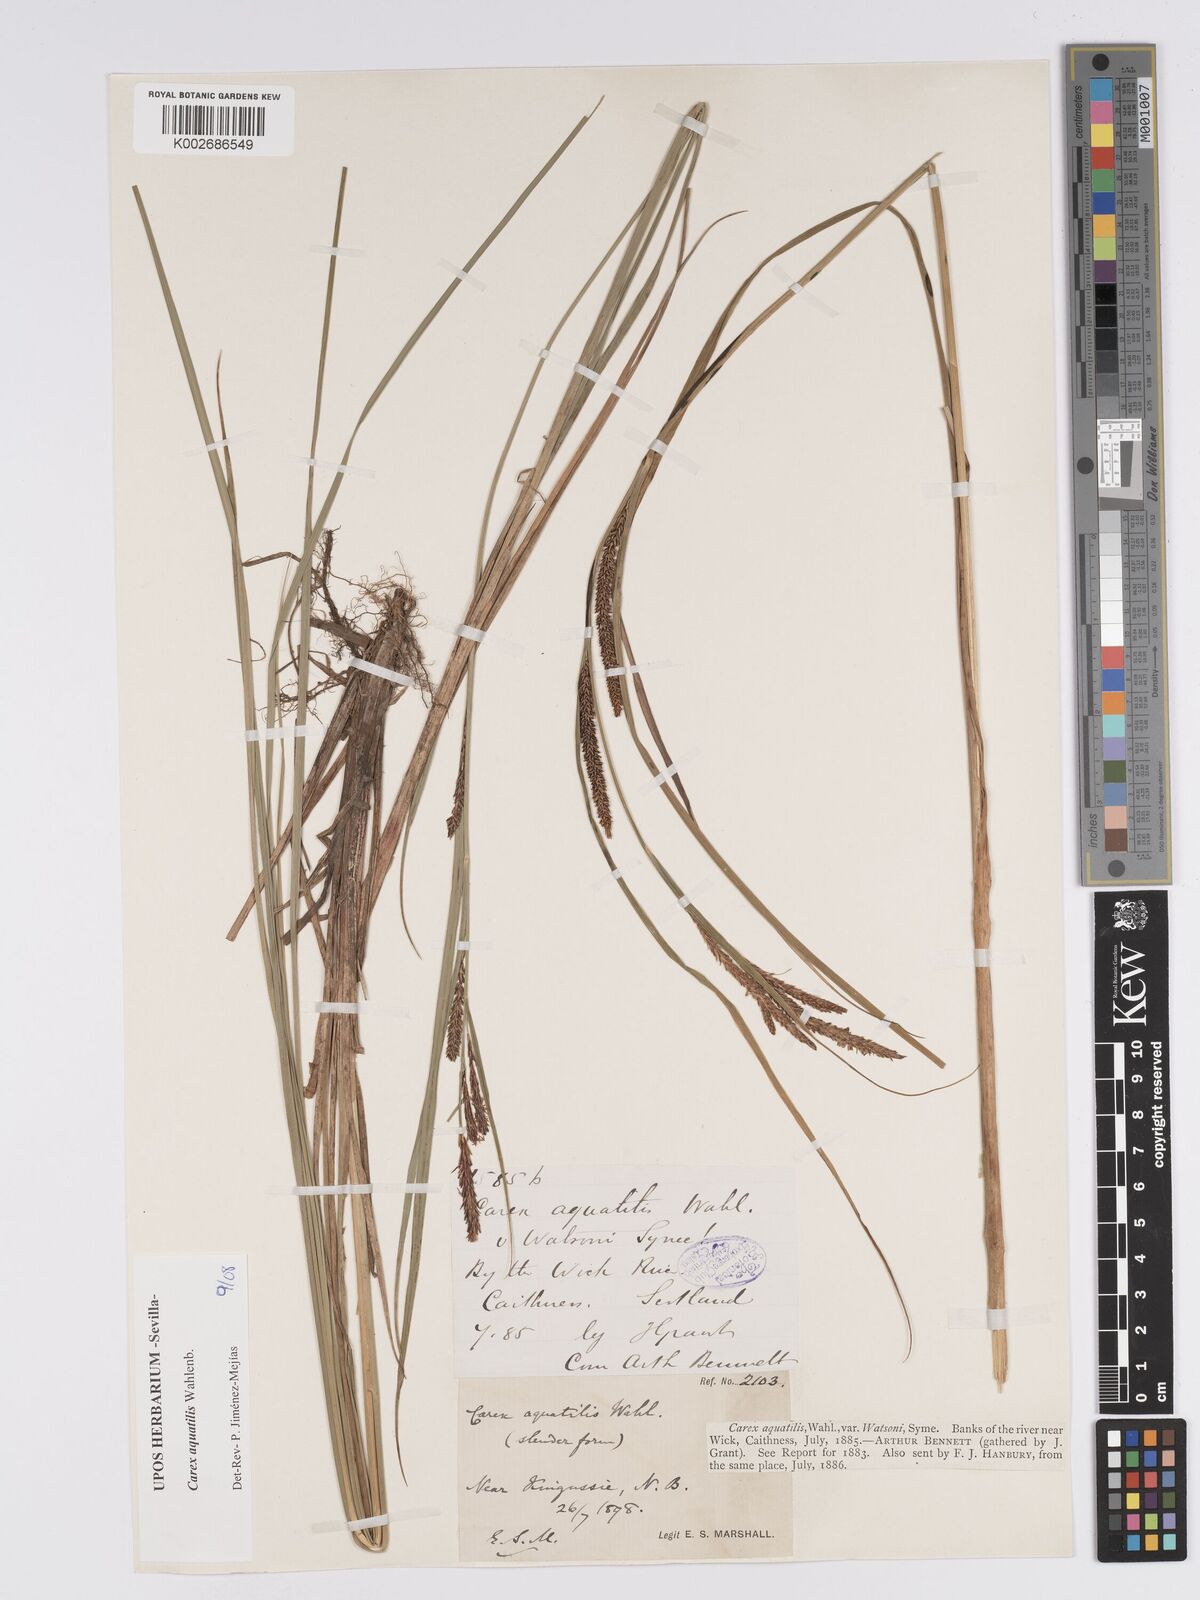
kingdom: Plantae
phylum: Tracheophyta
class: Liliopsida
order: Poales
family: Cyperaceae
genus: Carex
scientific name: Carex aquatilis
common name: Water sedge
